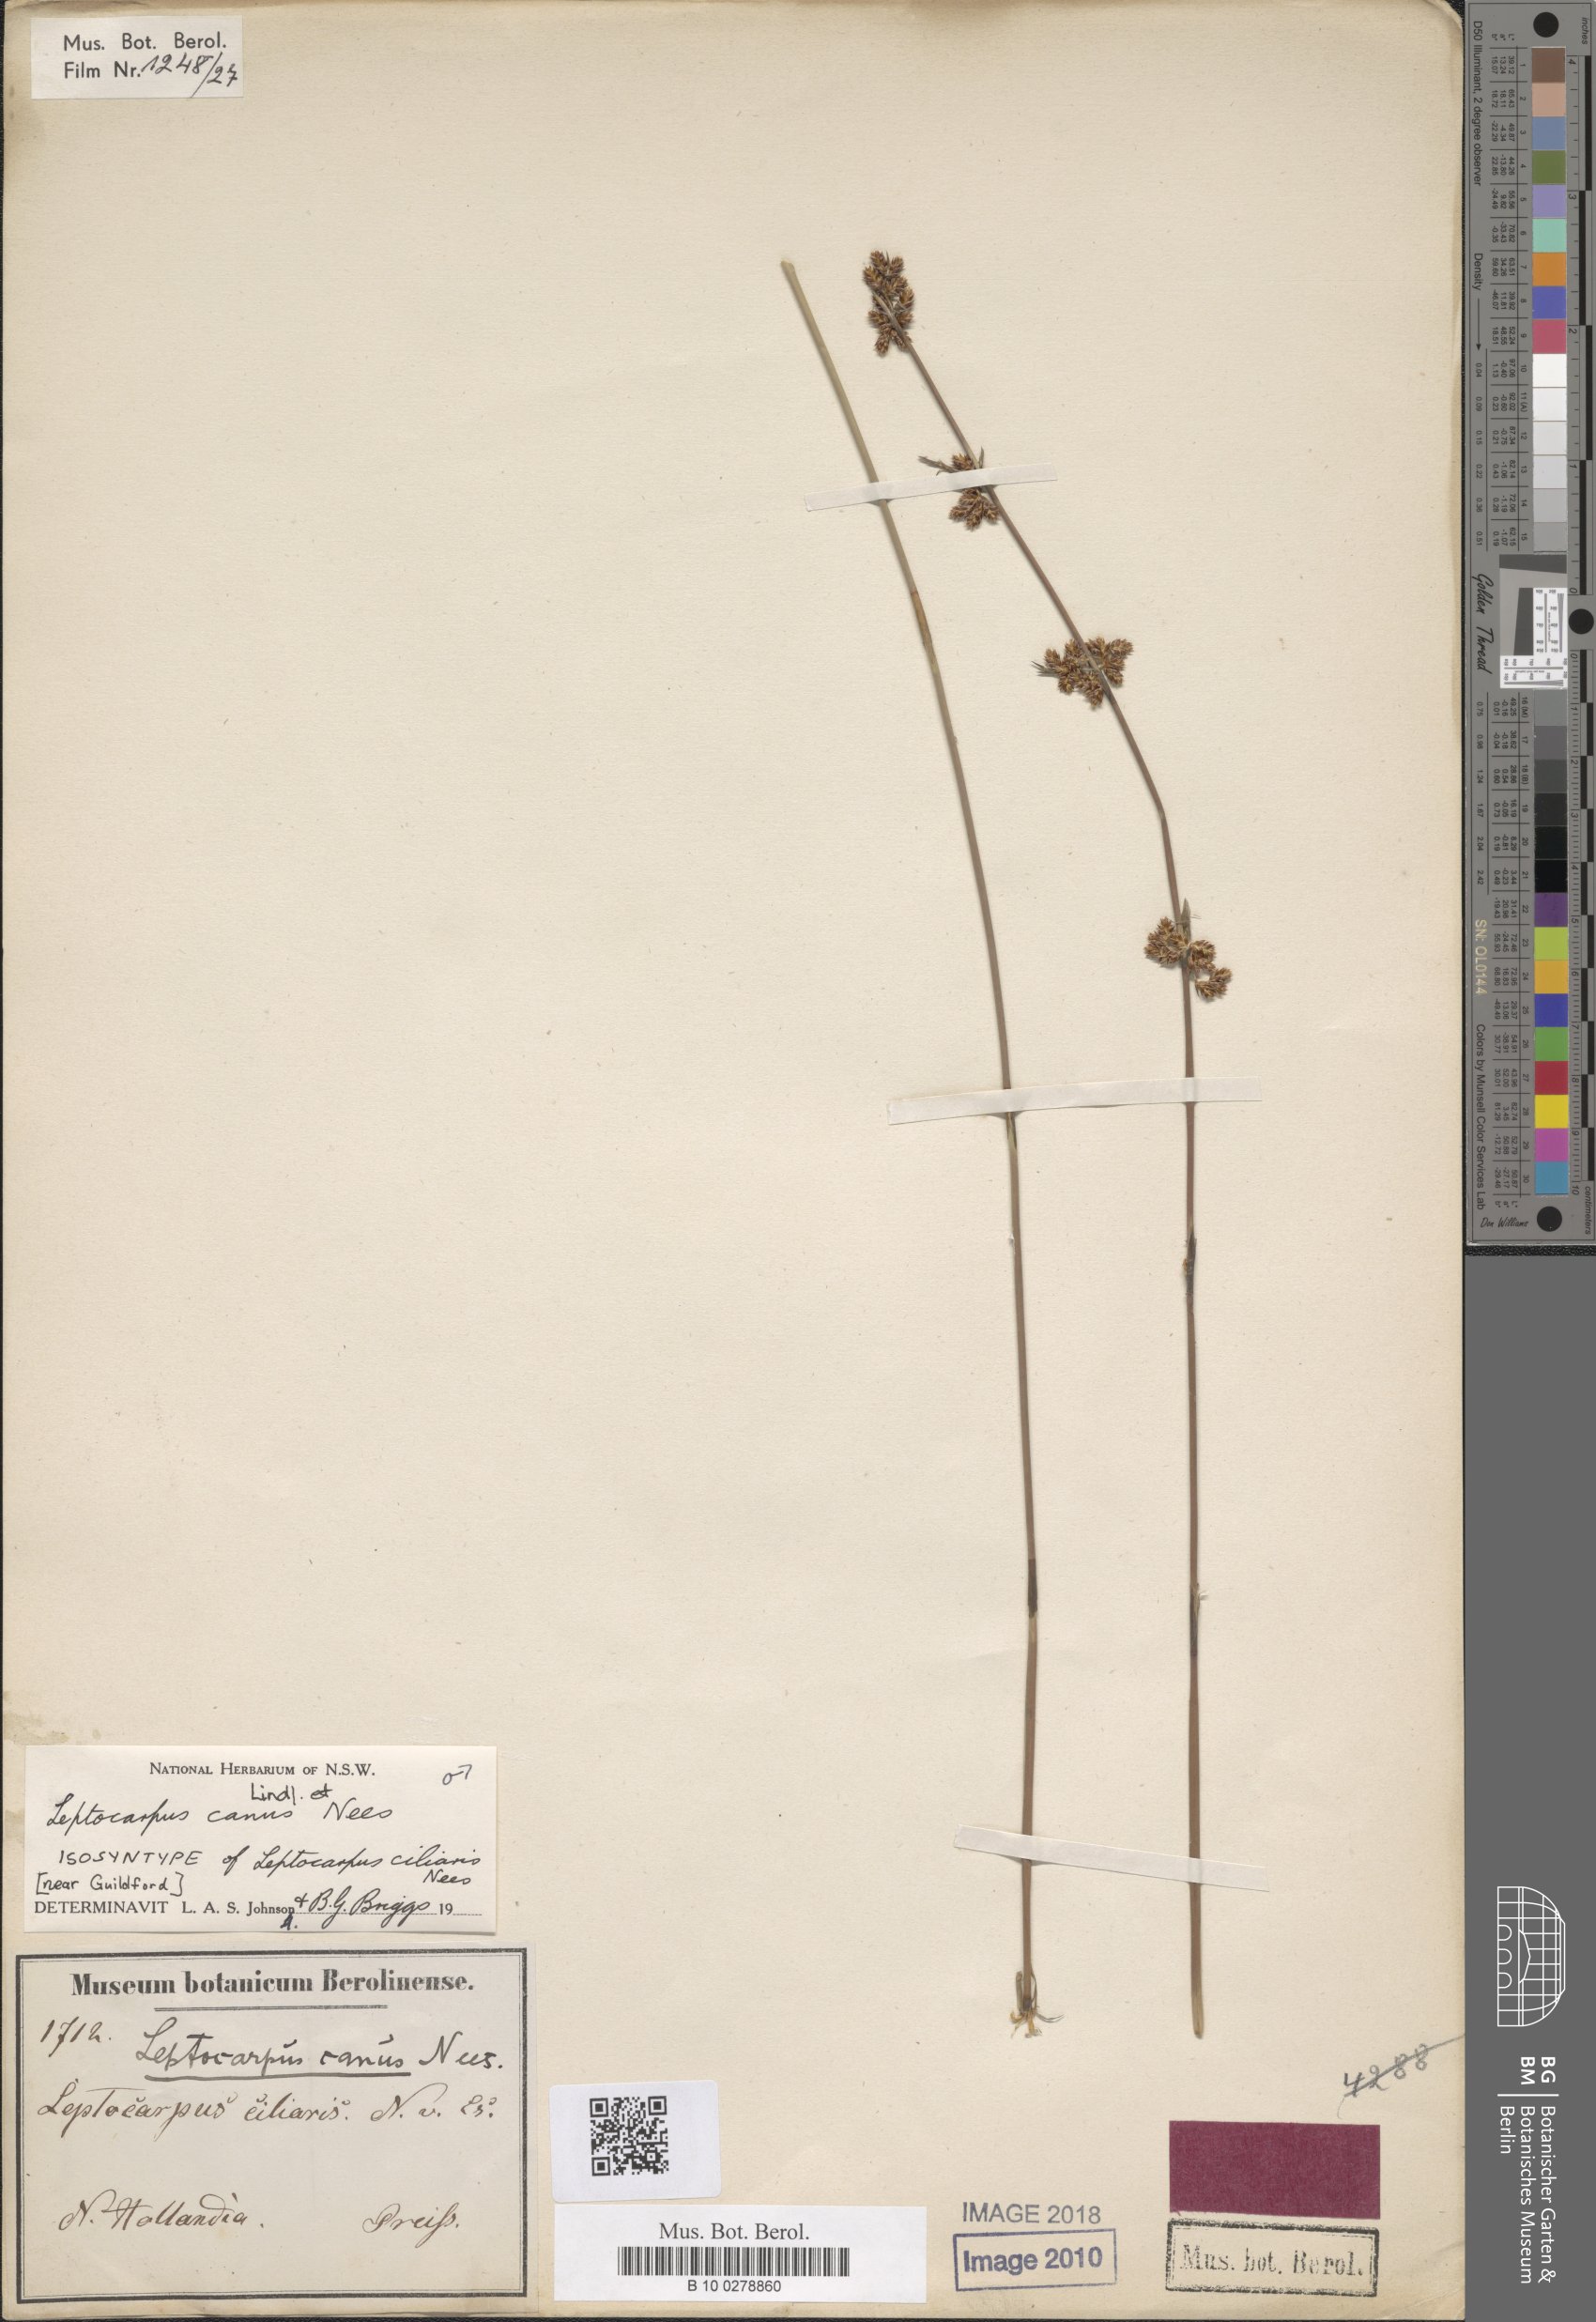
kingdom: Plantae
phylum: Tracheophyta
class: Liliopsida
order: Poales
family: Restionaceae
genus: Leptocarpus
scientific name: Leptocarpus canus
